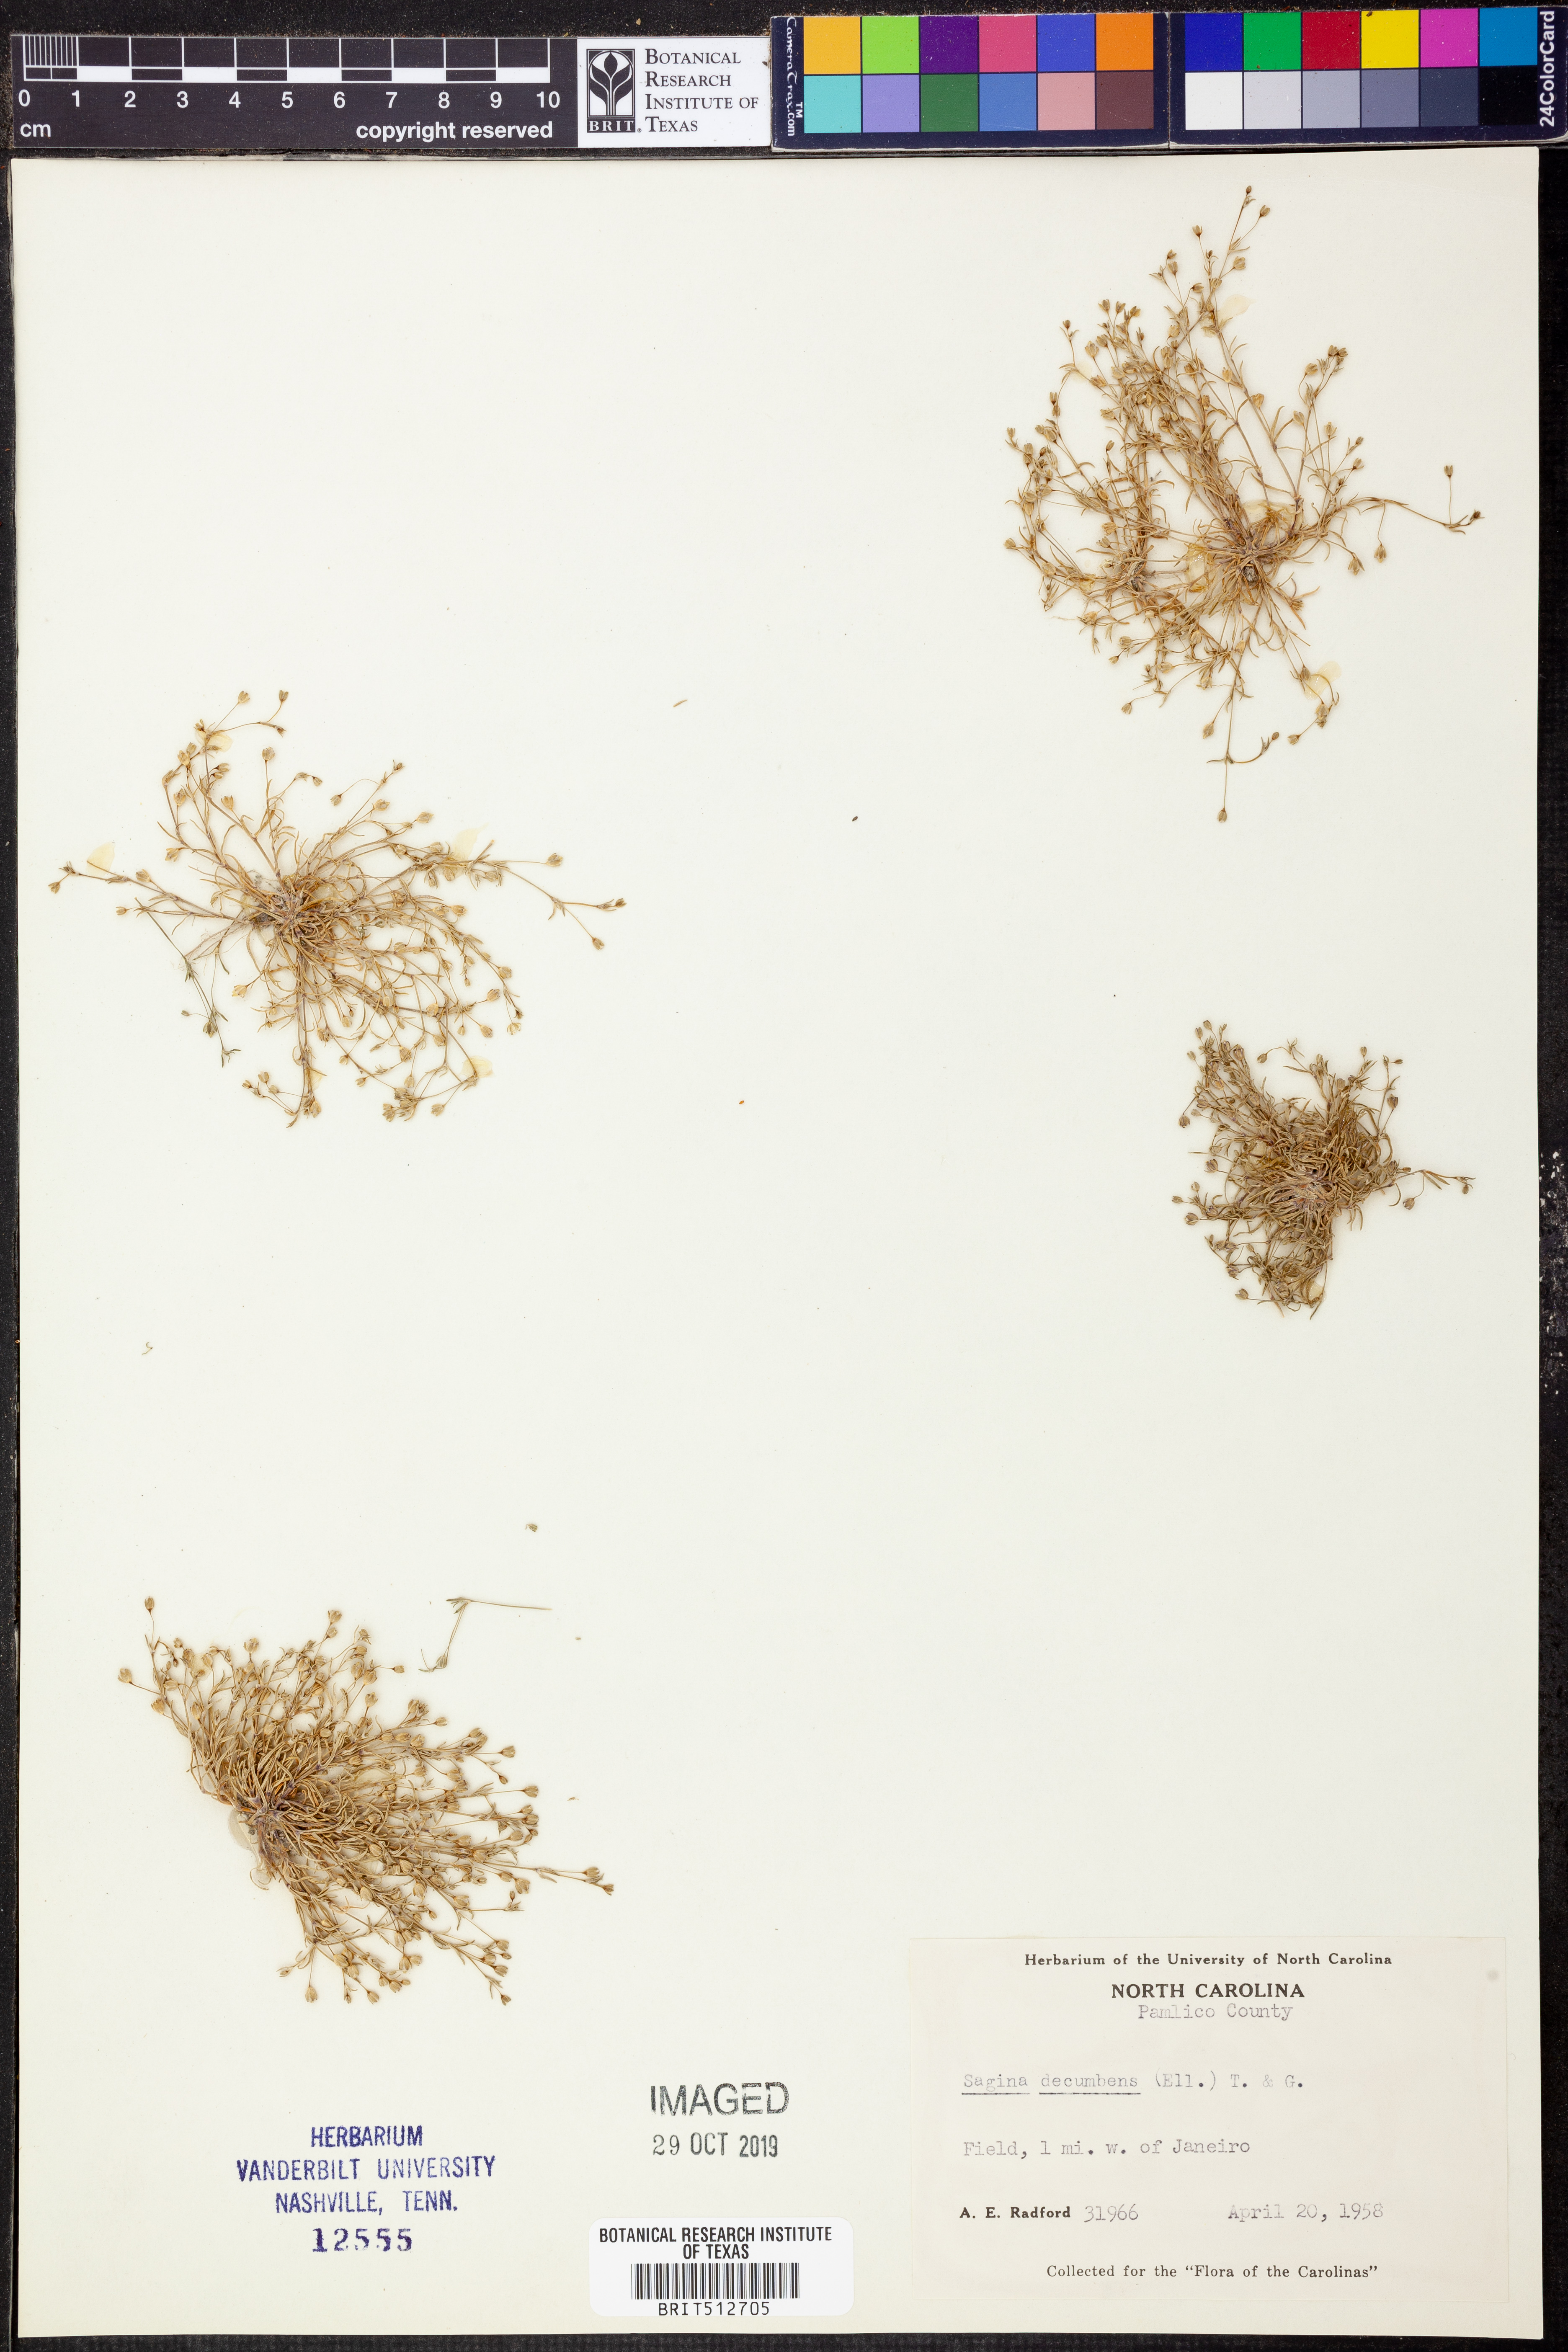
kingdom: Plantae
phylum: Tracheophyta
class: Magnoliopsida
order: Caryophyllales
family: Caryophyllaceae
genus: Sagina
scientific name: Sagina decumbens
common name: Decumbent pearlwort
